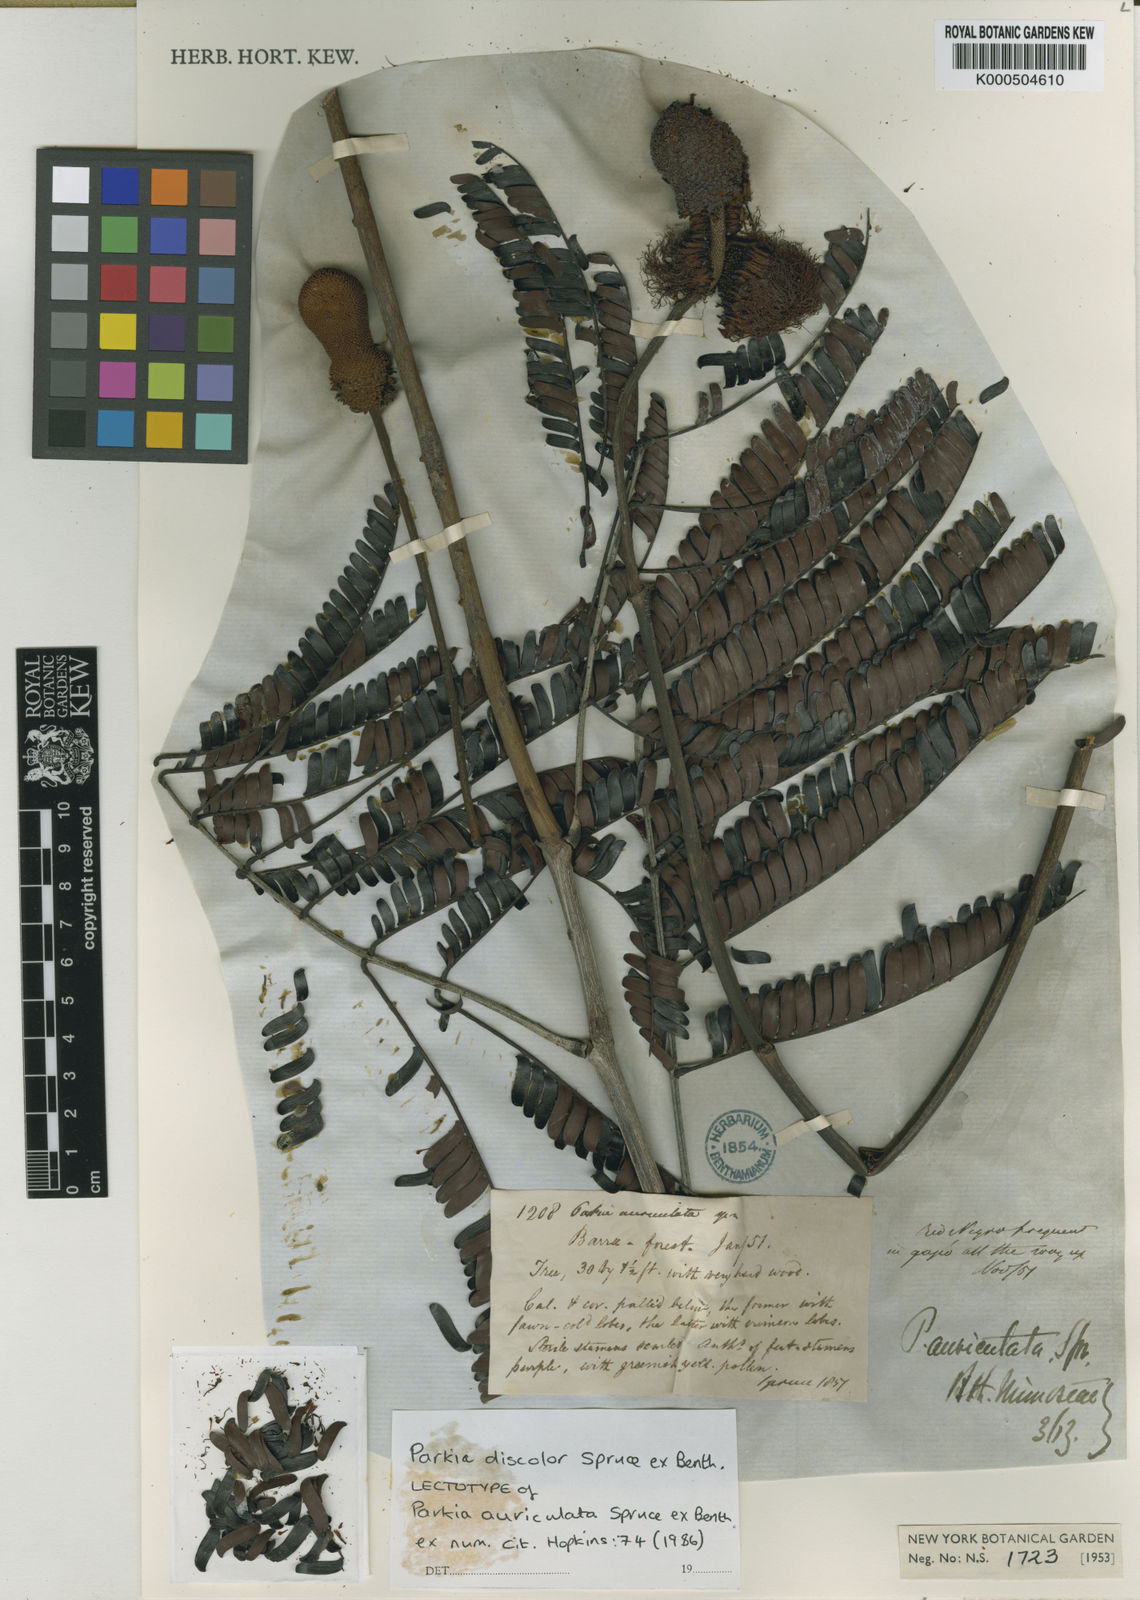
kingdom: Plantae
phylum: Tracheophyta
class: Magnoliopsida
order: Fabales
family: Fabaceae
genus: Parkia
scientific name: Parkia discolor
